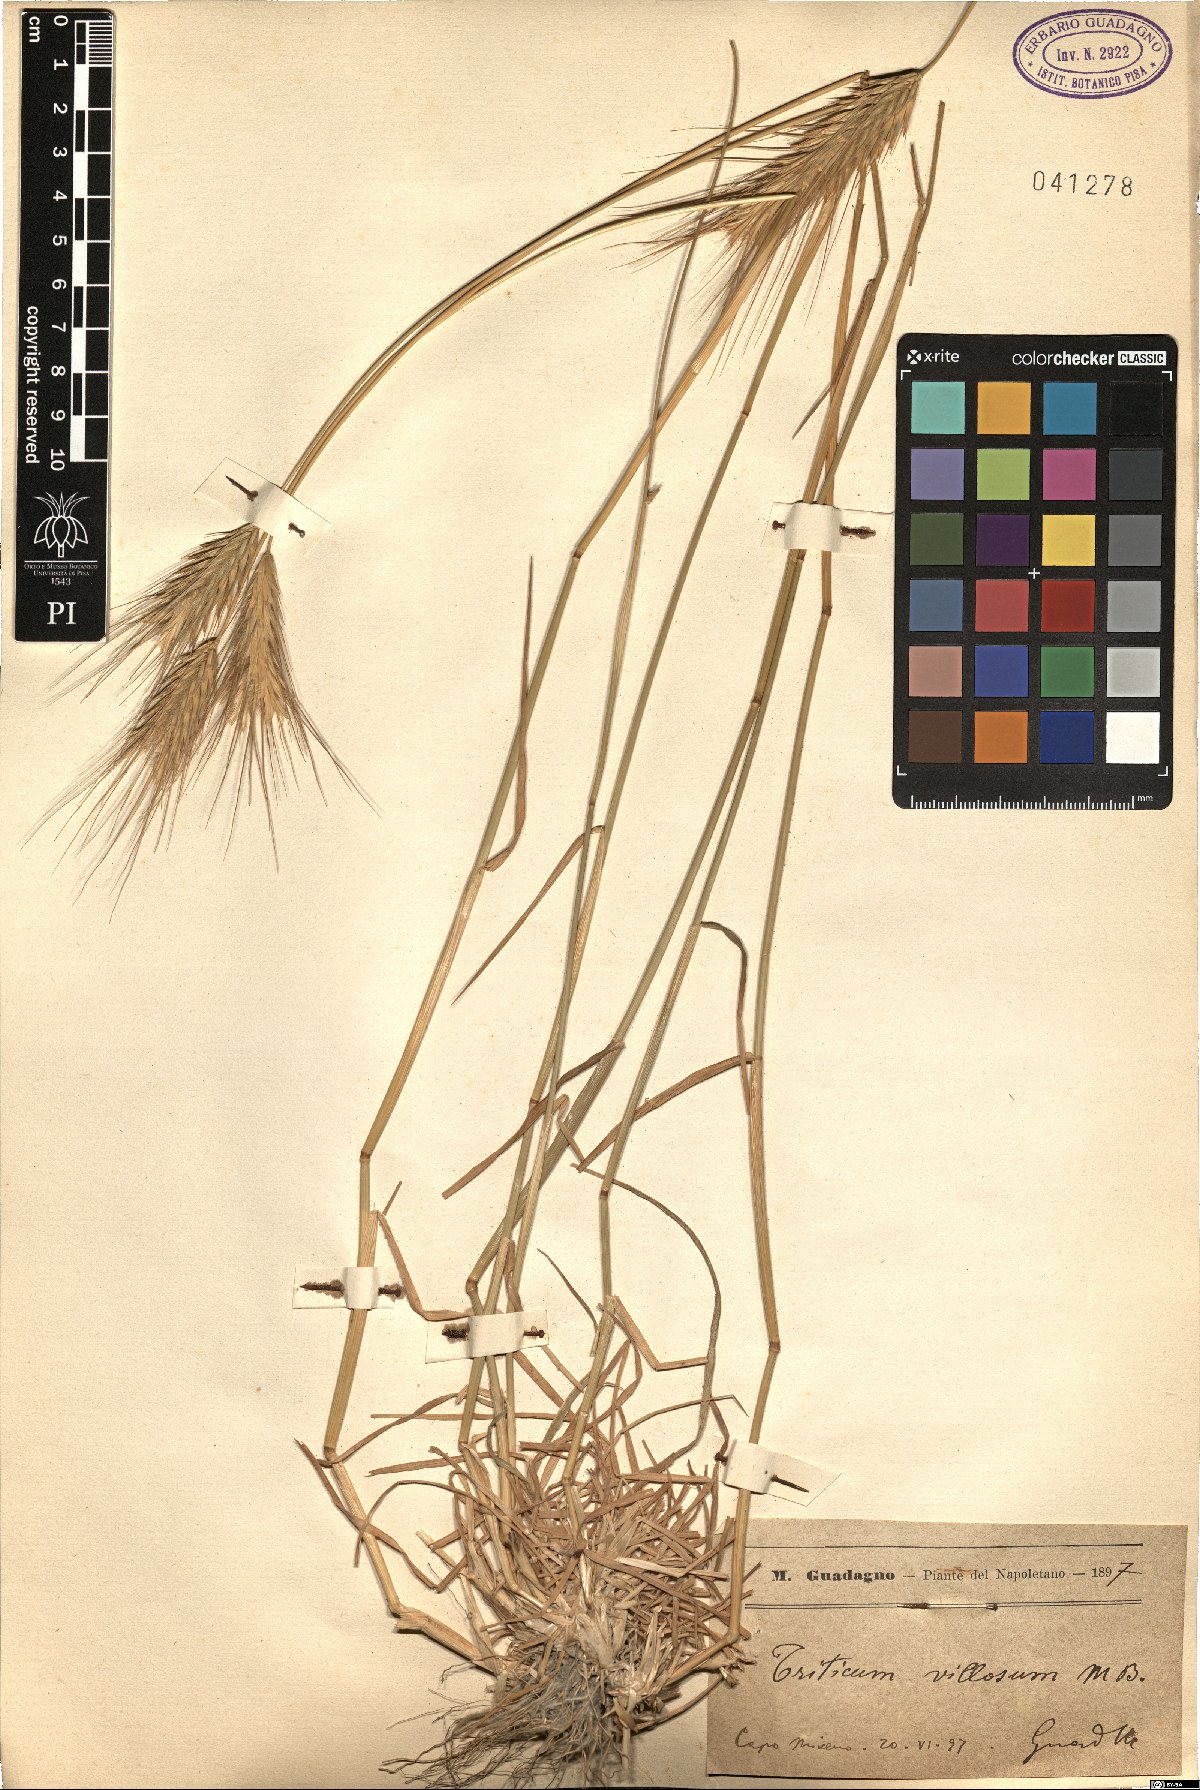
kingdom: Plantae
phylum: Tracheophyta
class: Liliopsida
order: Poales
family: Poaceae
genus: Dasypyrum
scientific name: Dasypyrum villosum
